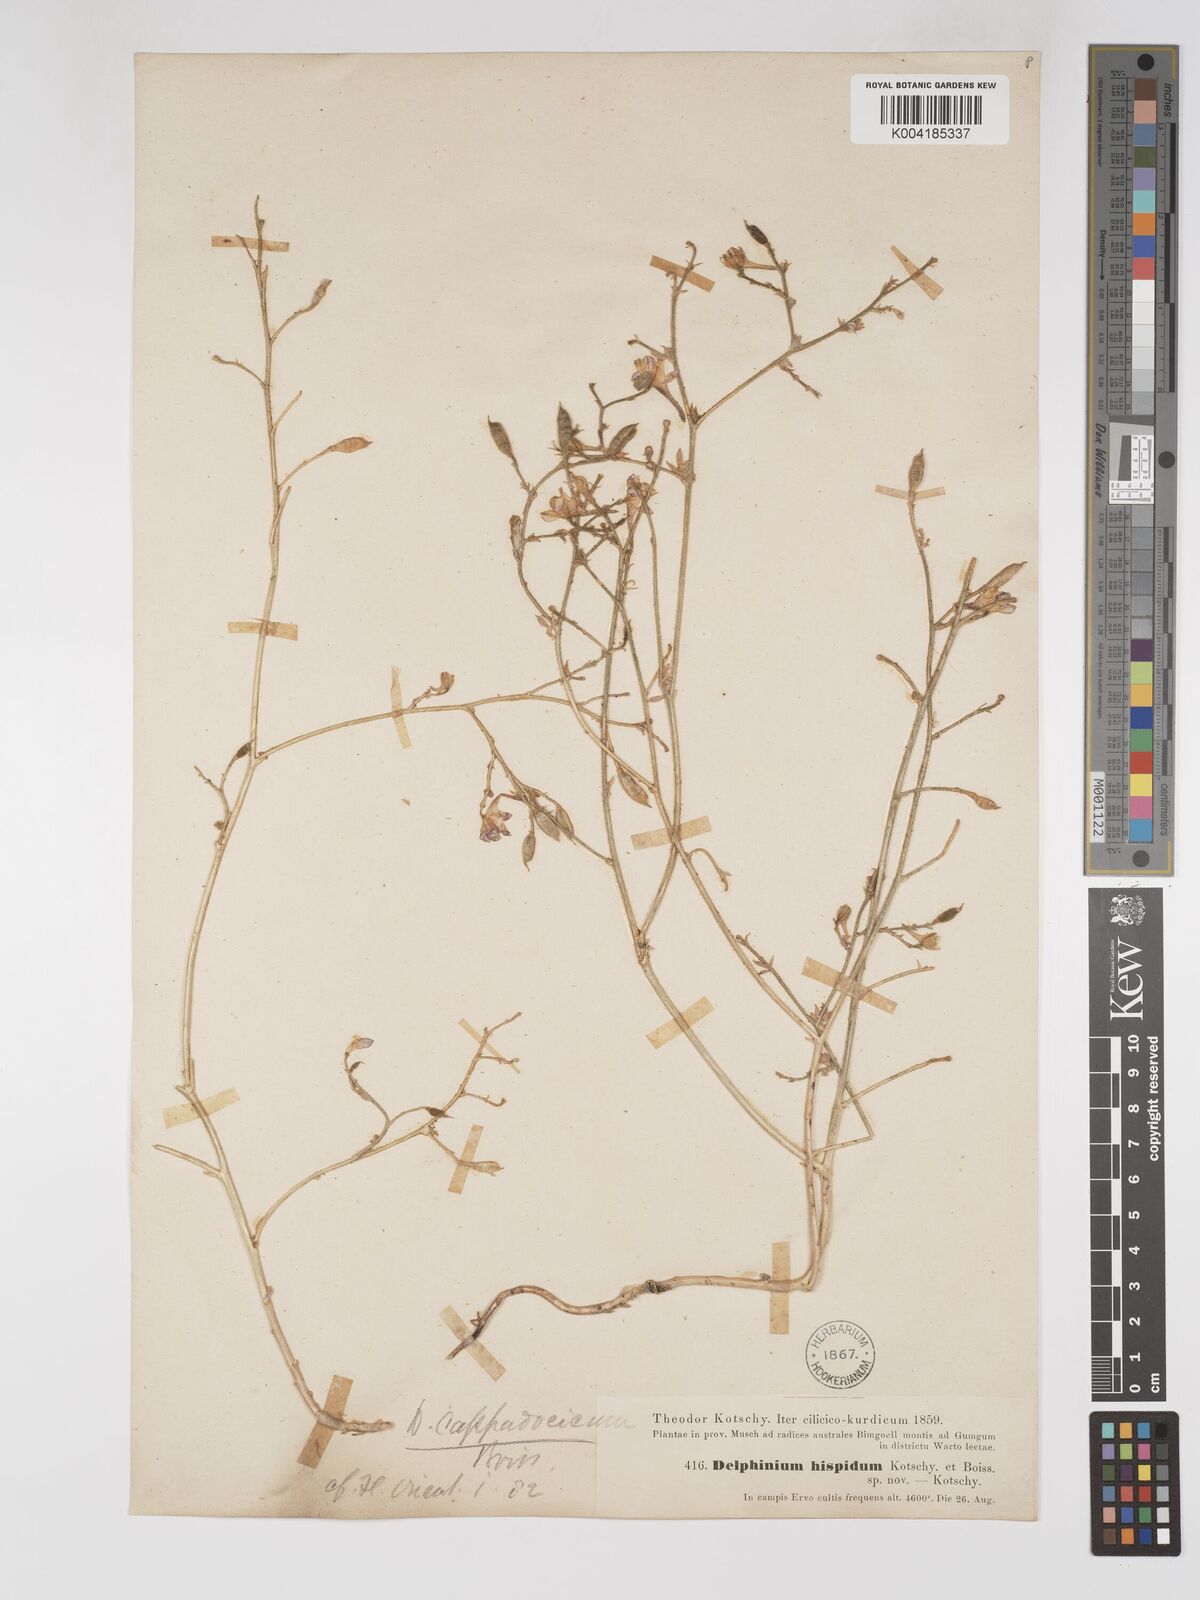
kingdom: Plantae
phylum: Tracheophyta
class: Magnoliopsida
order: Ranunculales
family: Ranunculaceae
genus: Delphinium
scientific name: Delphinium oliverianum
